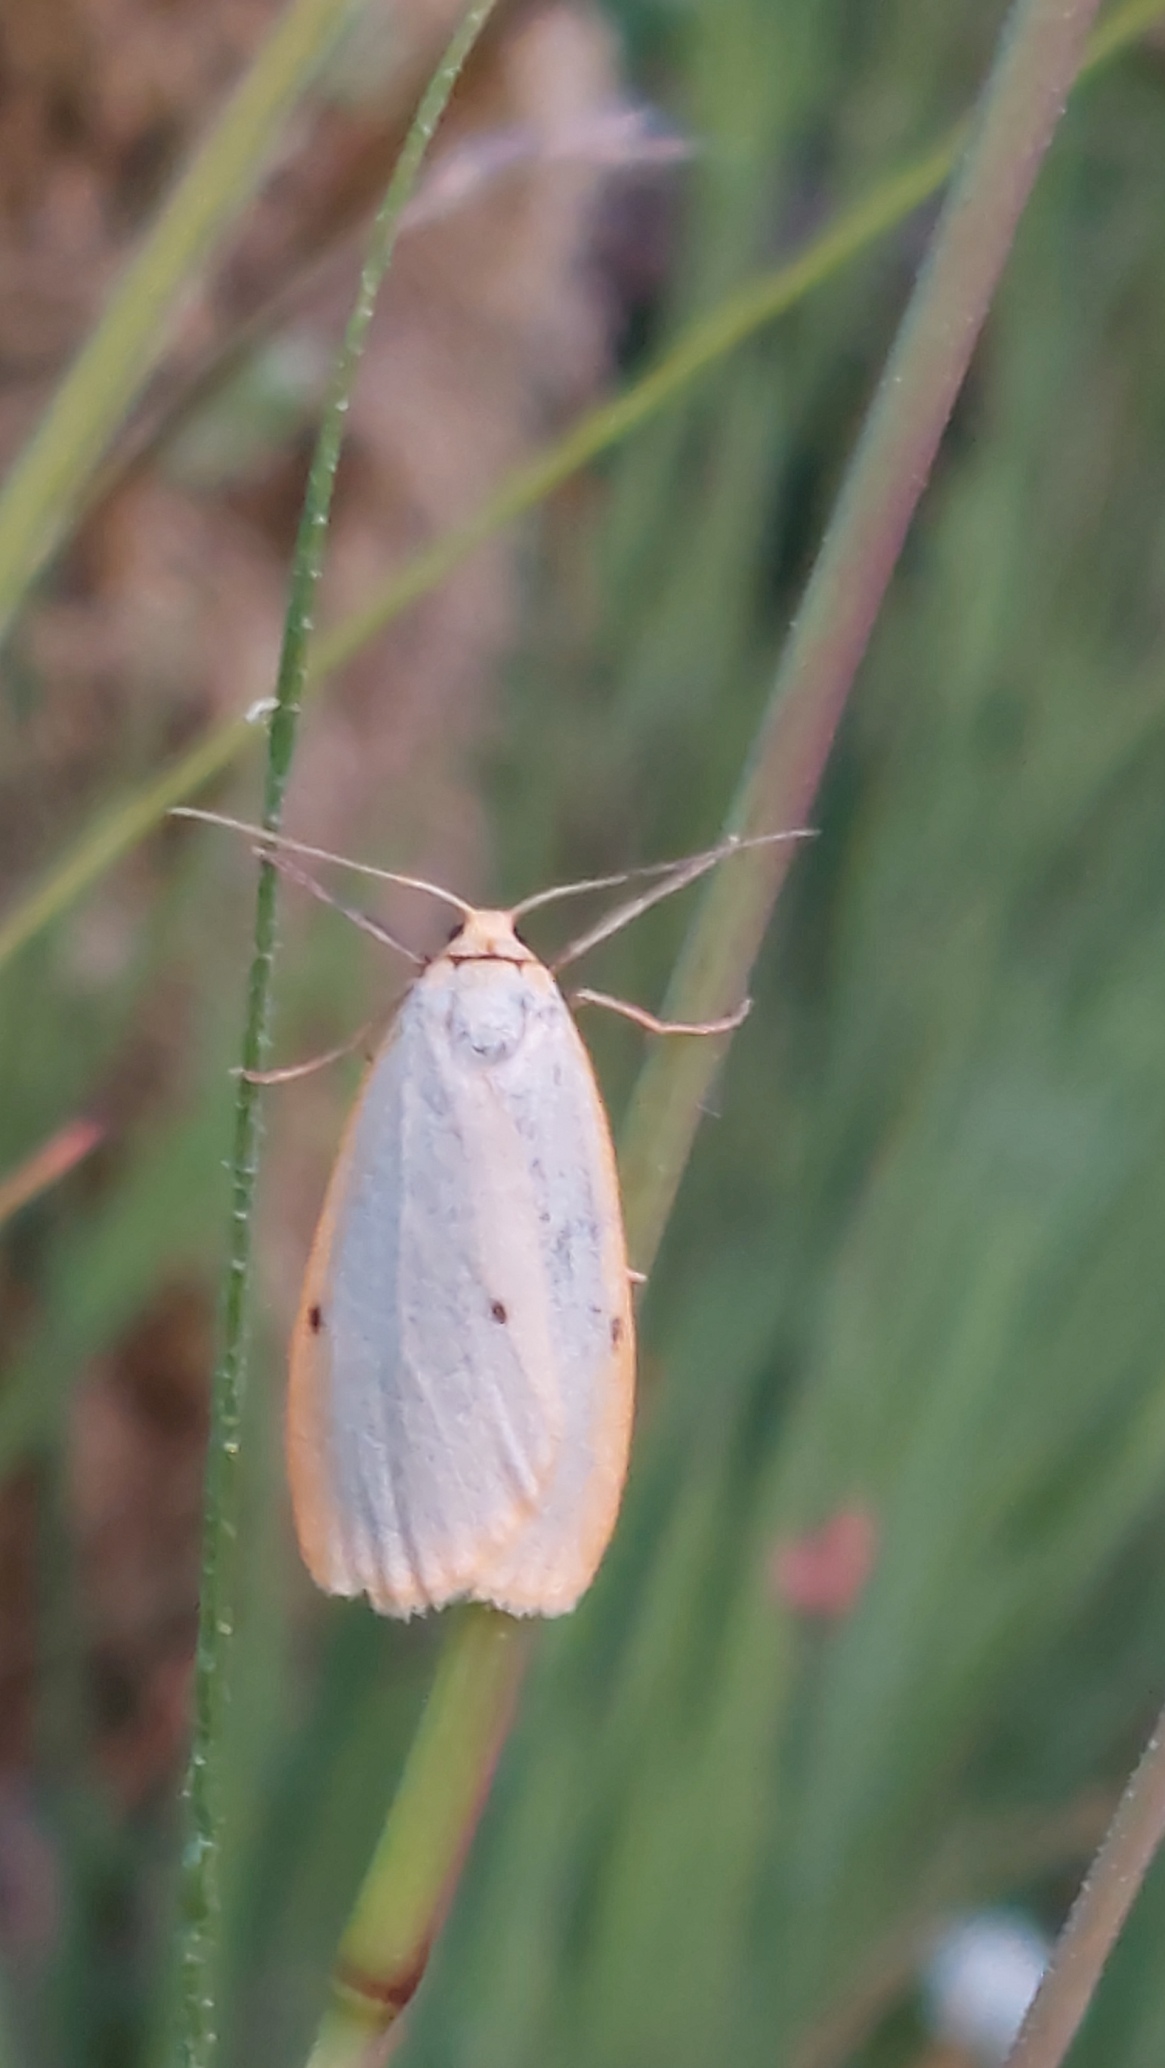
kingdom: Animalia
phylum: Arthropoda
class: Insecta
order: Lepidoptera
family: Erebidae
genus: Cybosia
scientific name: Cybosia mesomella
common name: Dag-lavspinder
